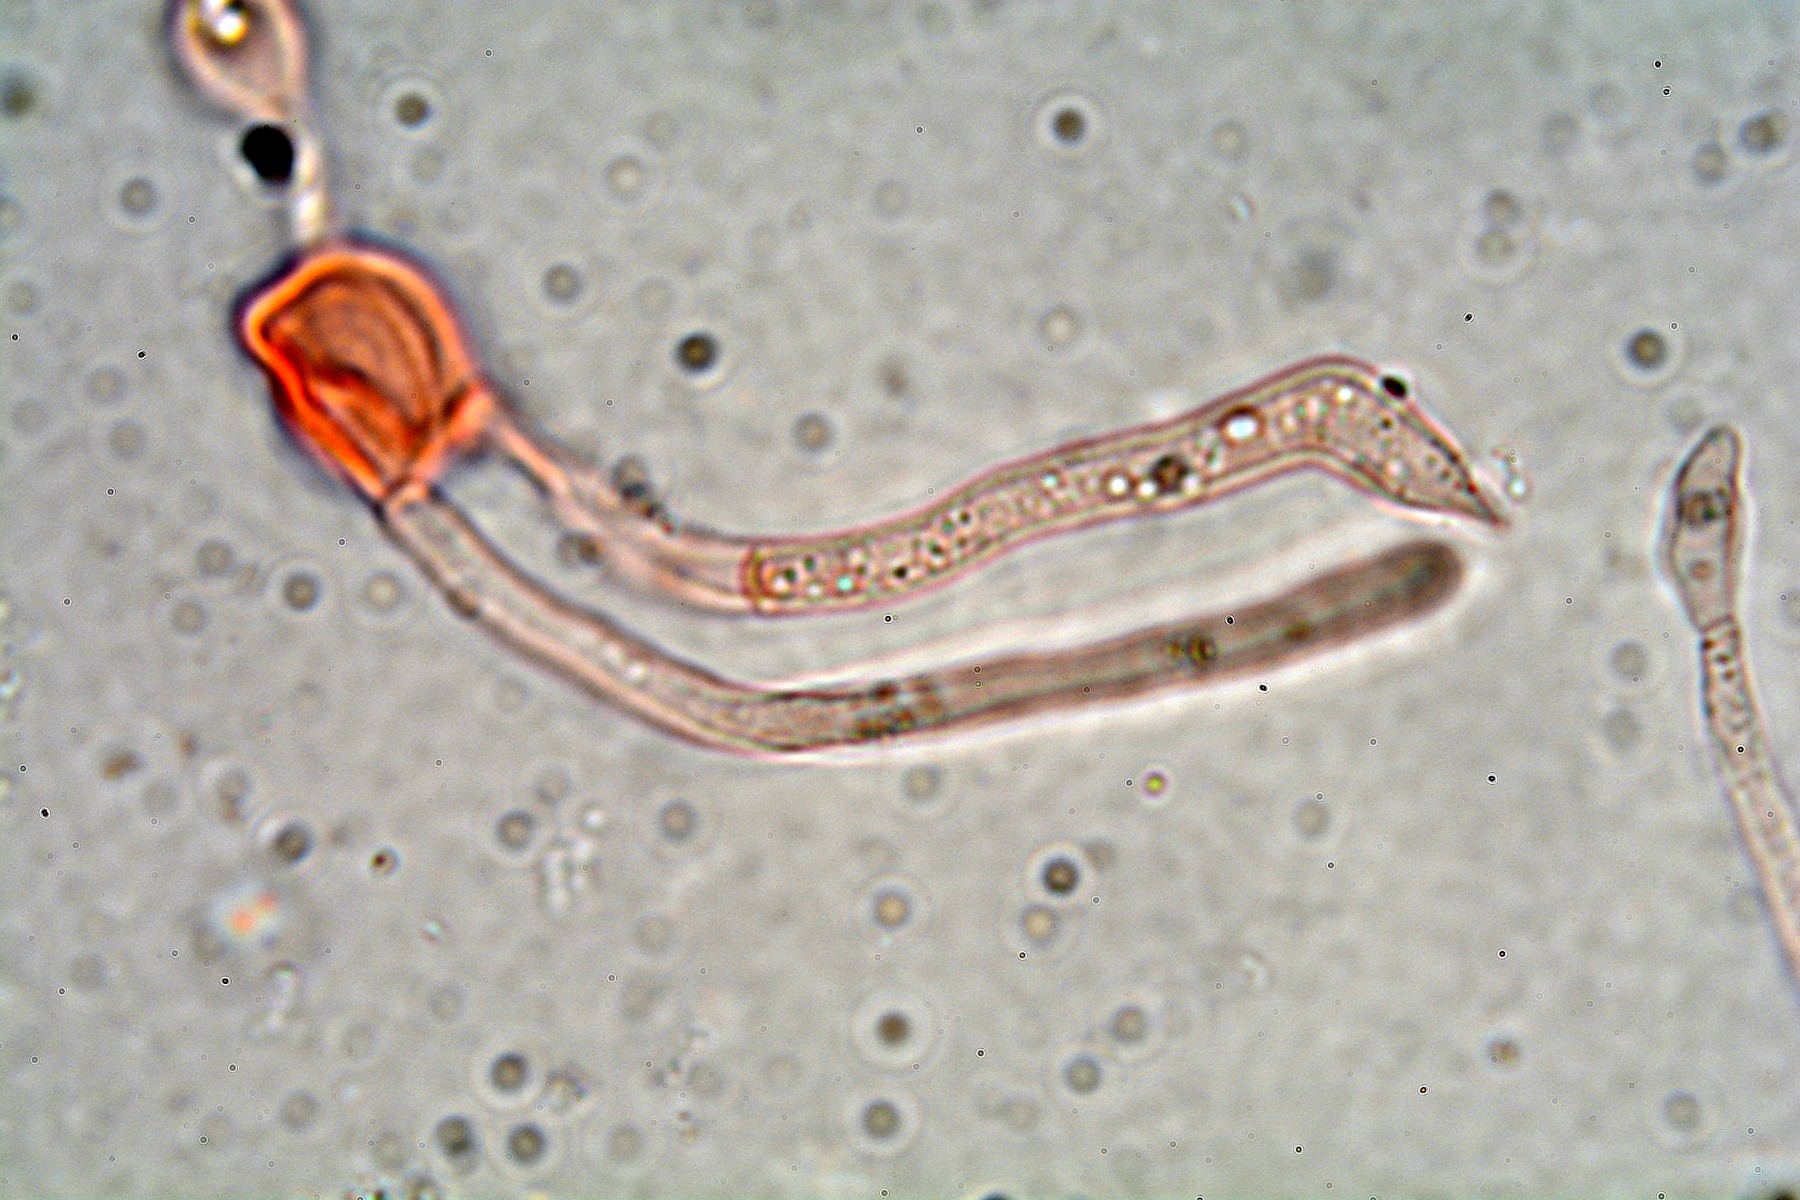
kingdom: Fungi
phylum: Basidiomycota
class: Tremellomycetes
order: Tremellales
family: Tremellaceae
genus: Phaeotremella
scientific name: Phaeotremella simplex
